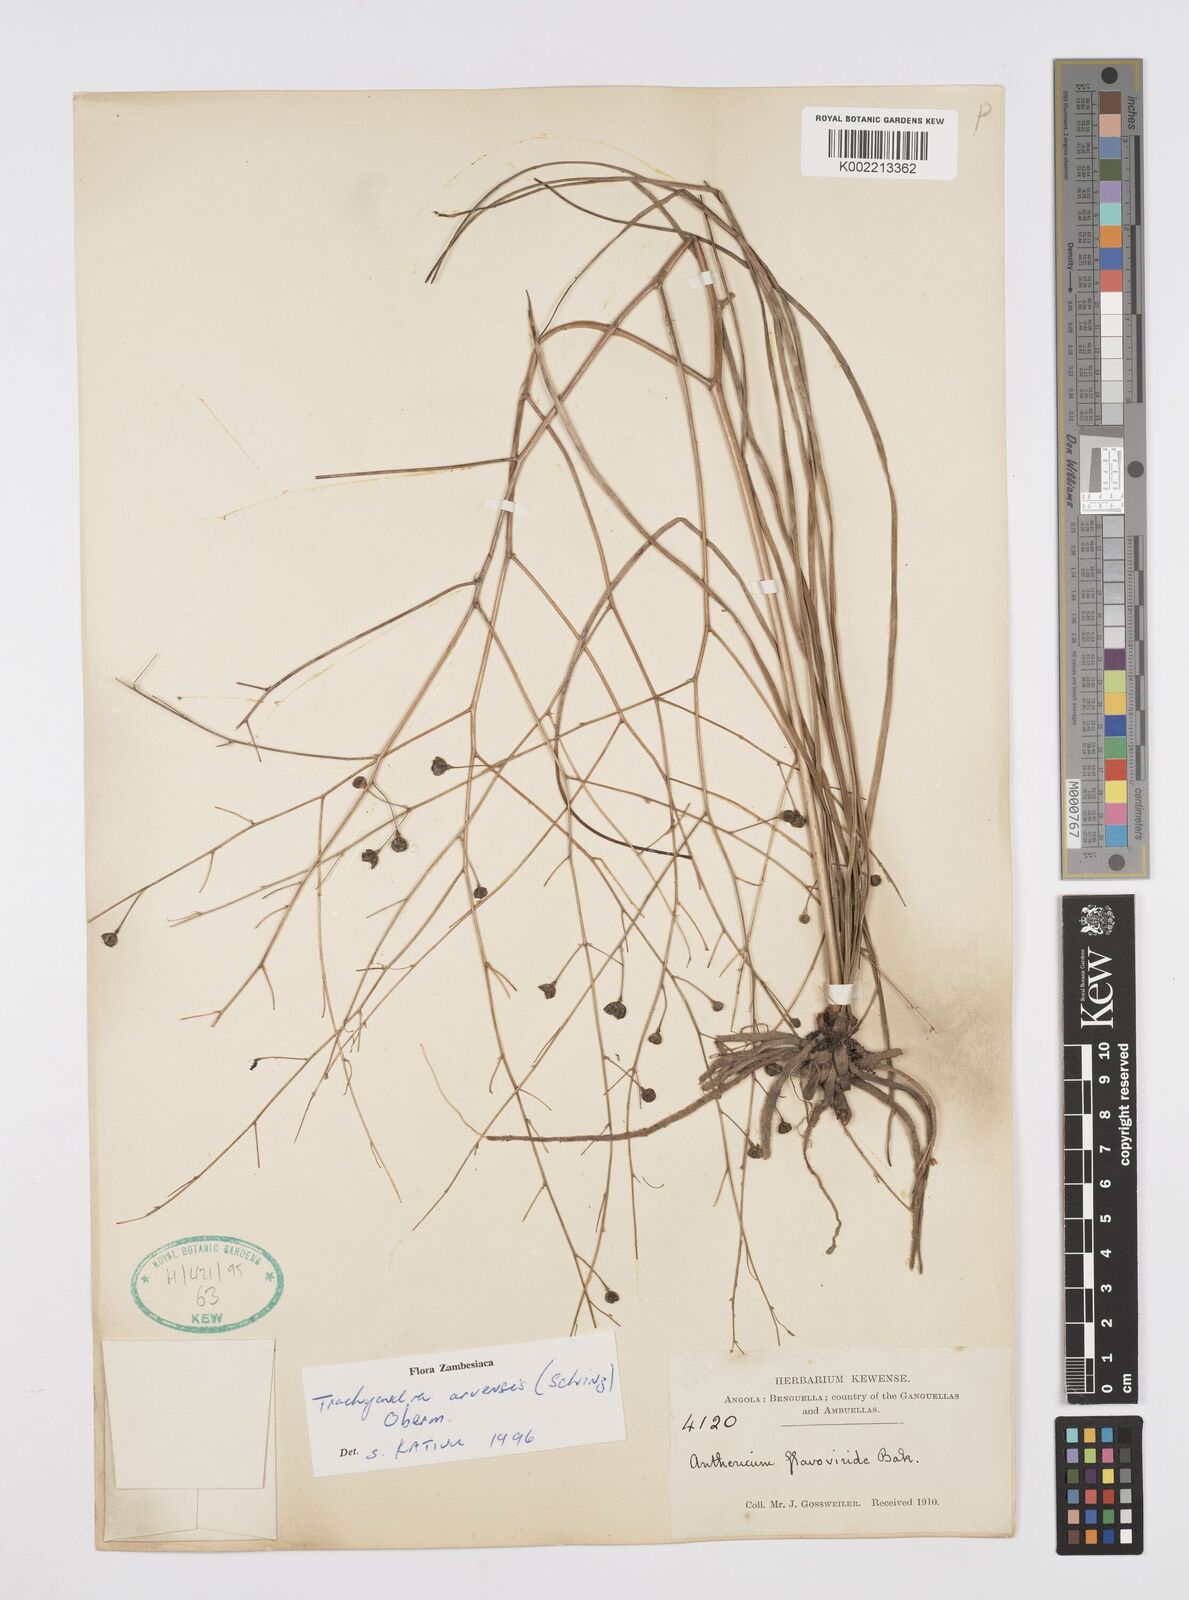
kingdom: Plantae
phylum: Tracheophyta
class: Liliopsida
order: Asparagales
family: Asphodelaceae
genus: Trachyandra
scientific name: Trachyandra arvensis
